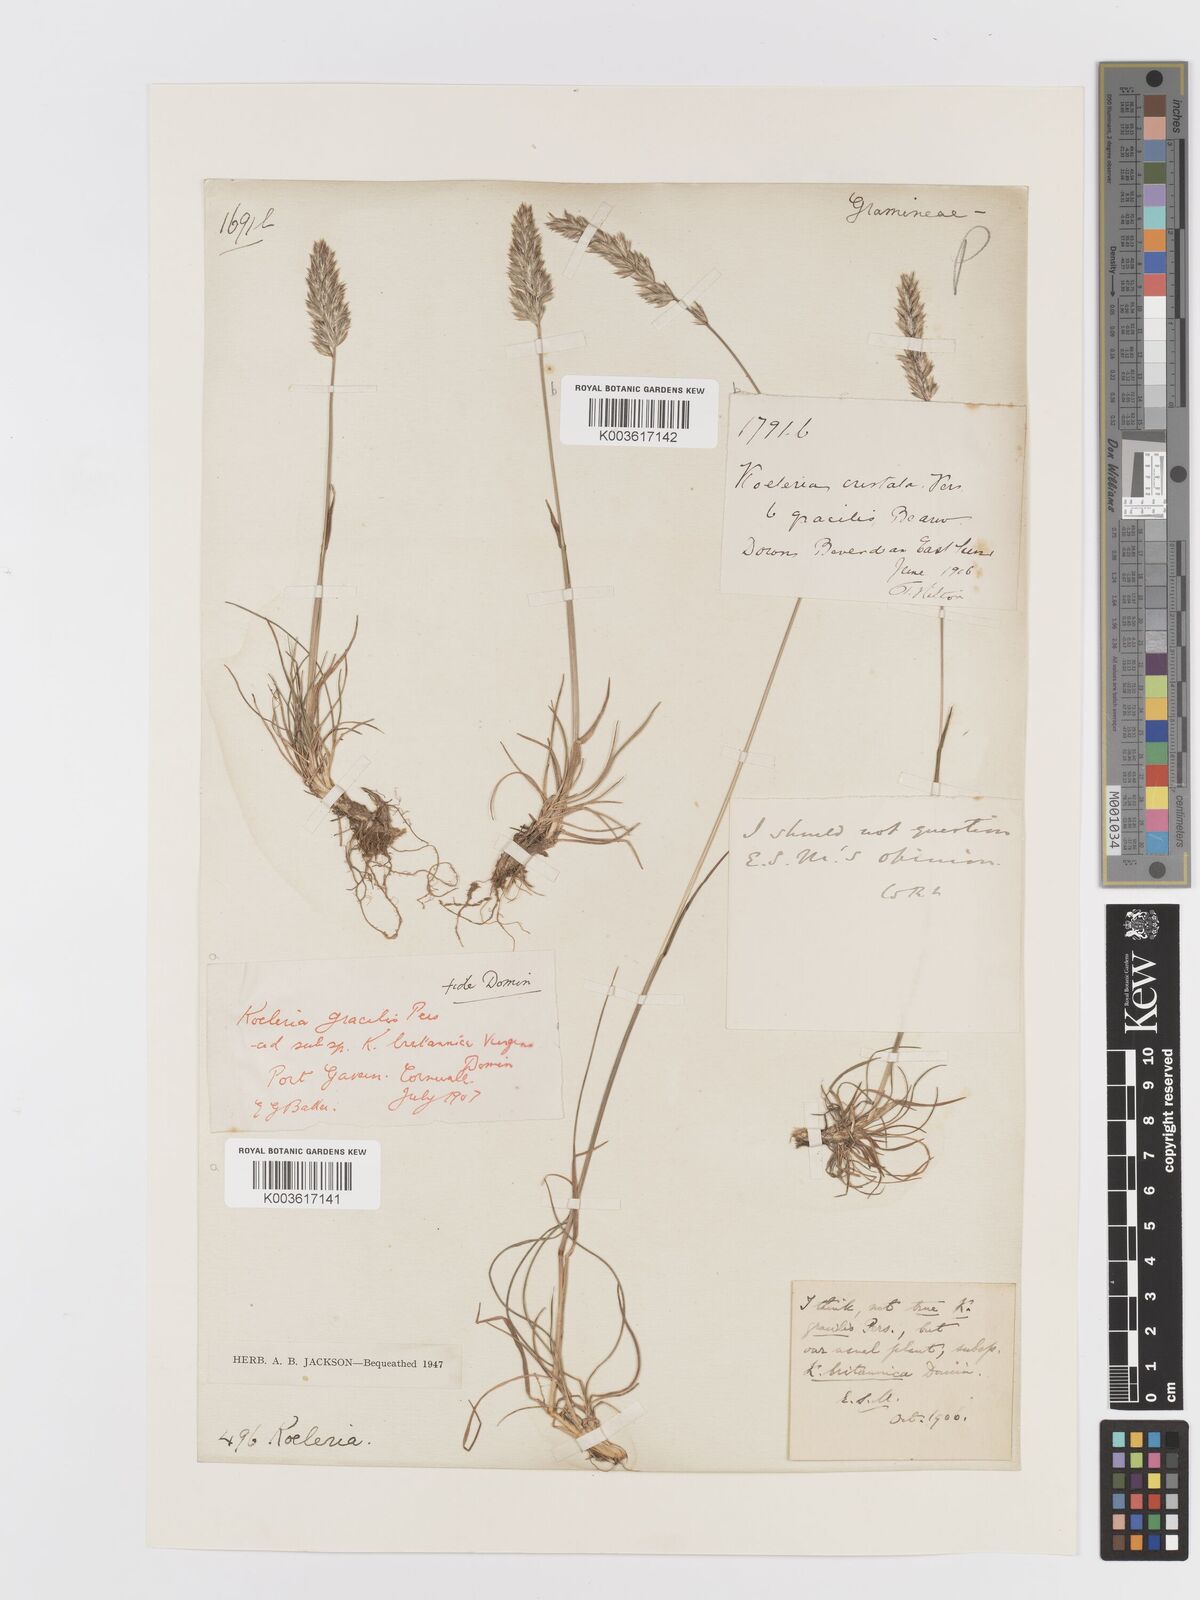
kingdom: Plantae
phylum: Tracheophyta
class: Liliopsida
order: Poales
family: Poaceae
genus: Koeleria
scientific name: Koeleria macrantha
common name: Crested hair-grass
